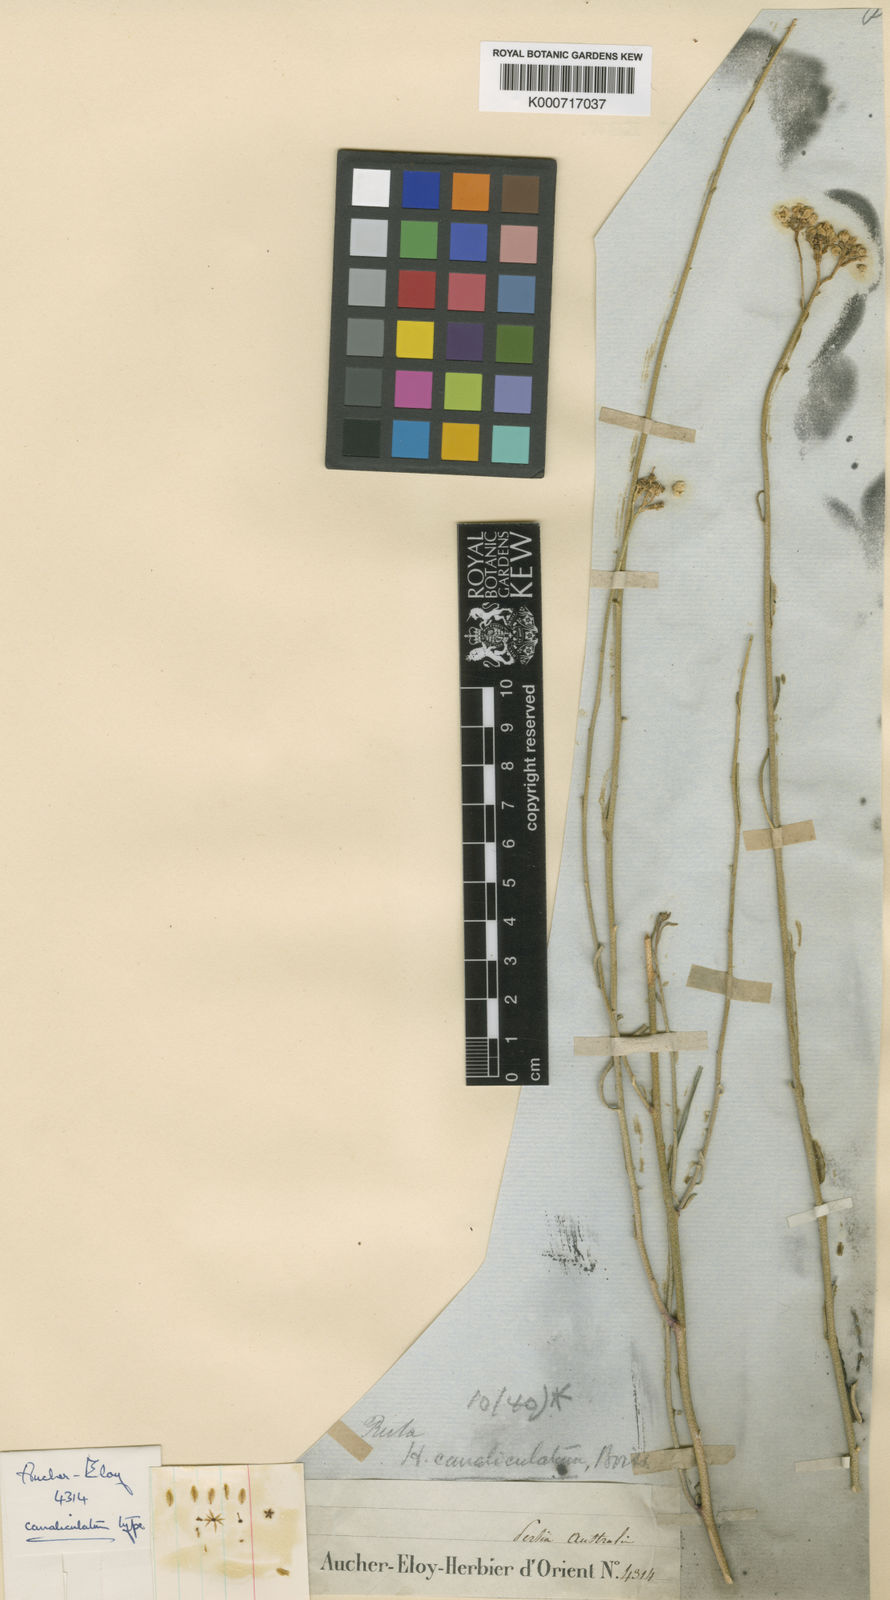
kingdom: Plantae
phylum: Tracheophyta
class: Magnoliopsida
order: Sapindales
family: Rutaceae
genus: Haplophyllum
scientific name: Haplophyllum canaliculatum
